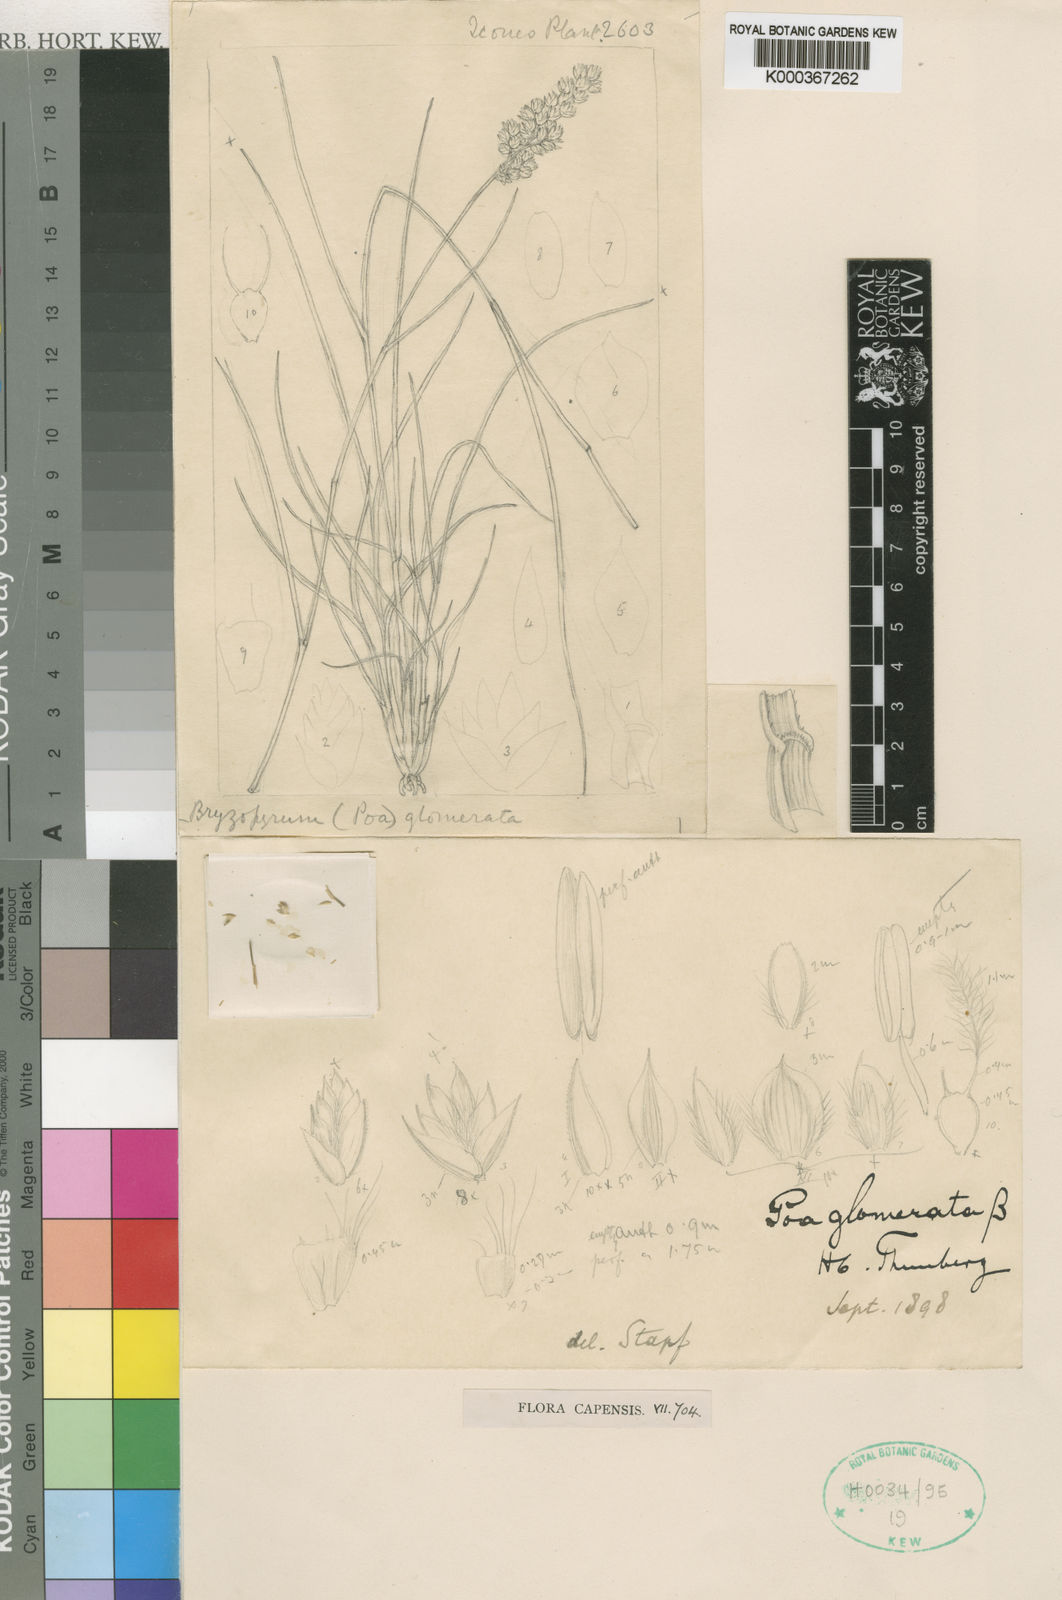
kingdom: Plantae
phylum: Tracheophyta
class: Liliopsida
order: Poales
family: Poaceae
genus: Tribolium
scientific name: Tribolium obliterum
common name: Capetown grass
